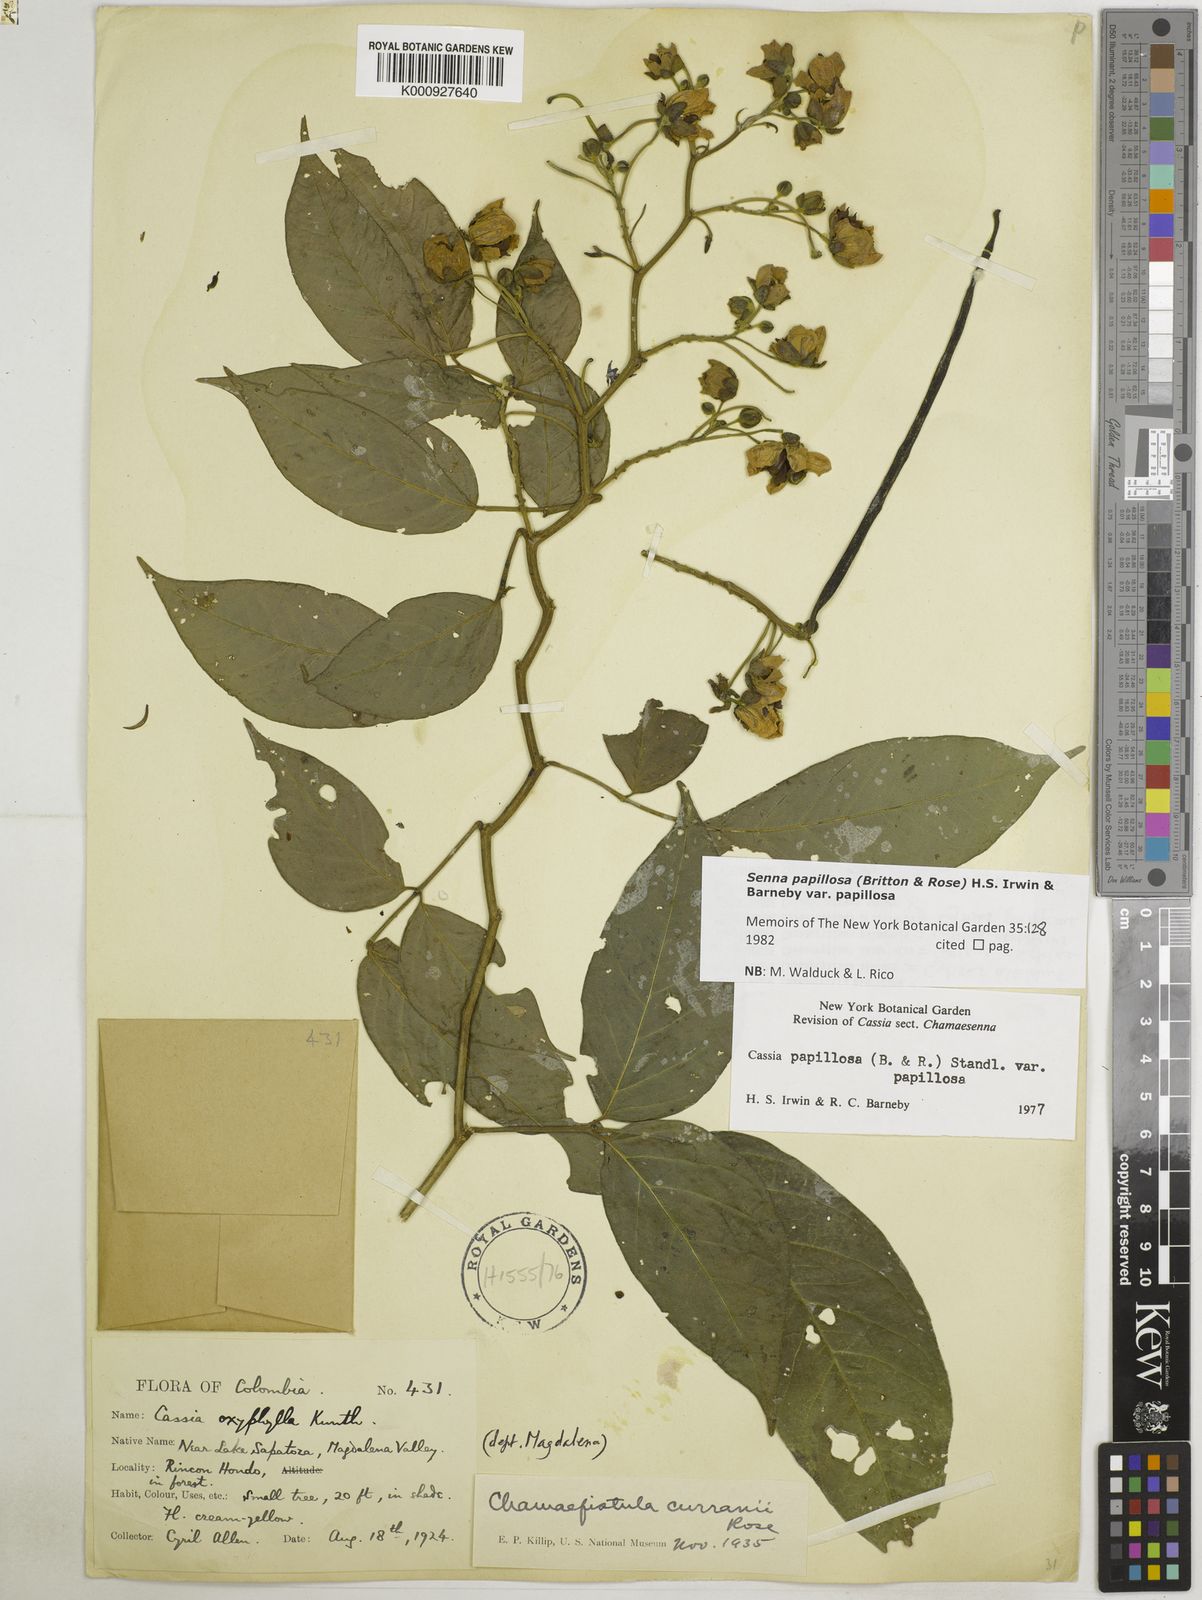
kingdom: Plantae
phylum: Tracheophyta
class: Magnoliopsida
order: Fabales
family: Fabaceae
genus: Senna
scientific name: Senna papillosa
